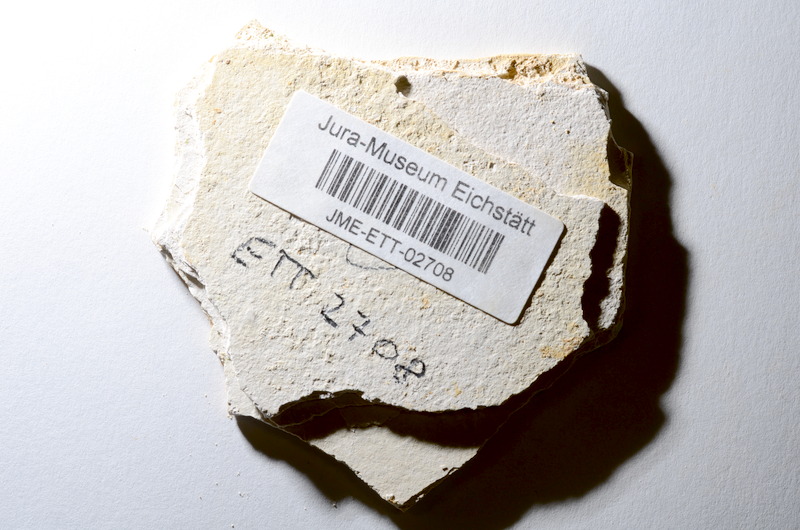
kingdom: Animalia
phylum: Chordata
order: Salmoniformes
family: Orthogonikleithridae
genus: Orthogonikleithrus
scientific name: Orthogonikleithrus hoelli
